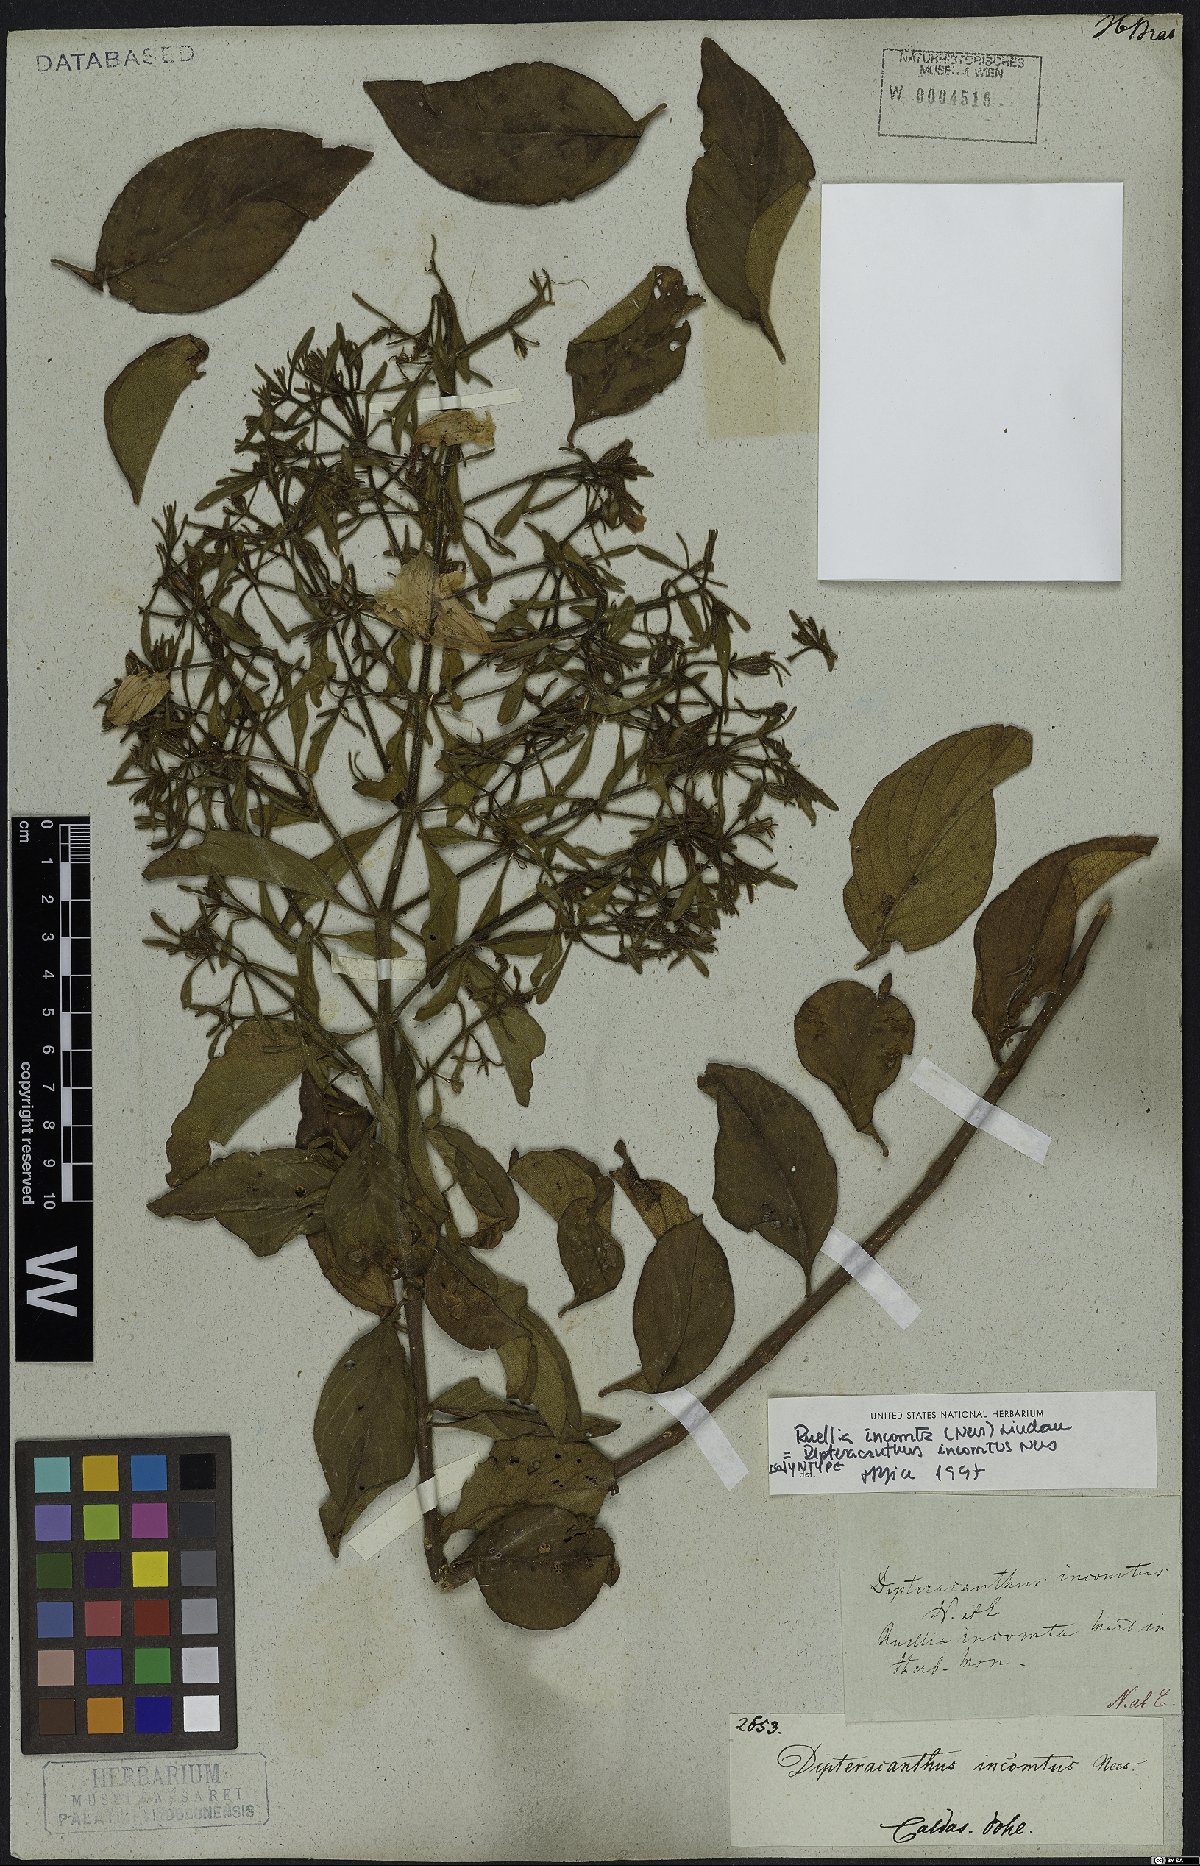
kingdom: Plantae
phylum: Tracheophyta
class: Magnoliopsida
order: Lamiales
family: Acanthaceae
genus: Ruellia
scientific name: Ruellia incomta
